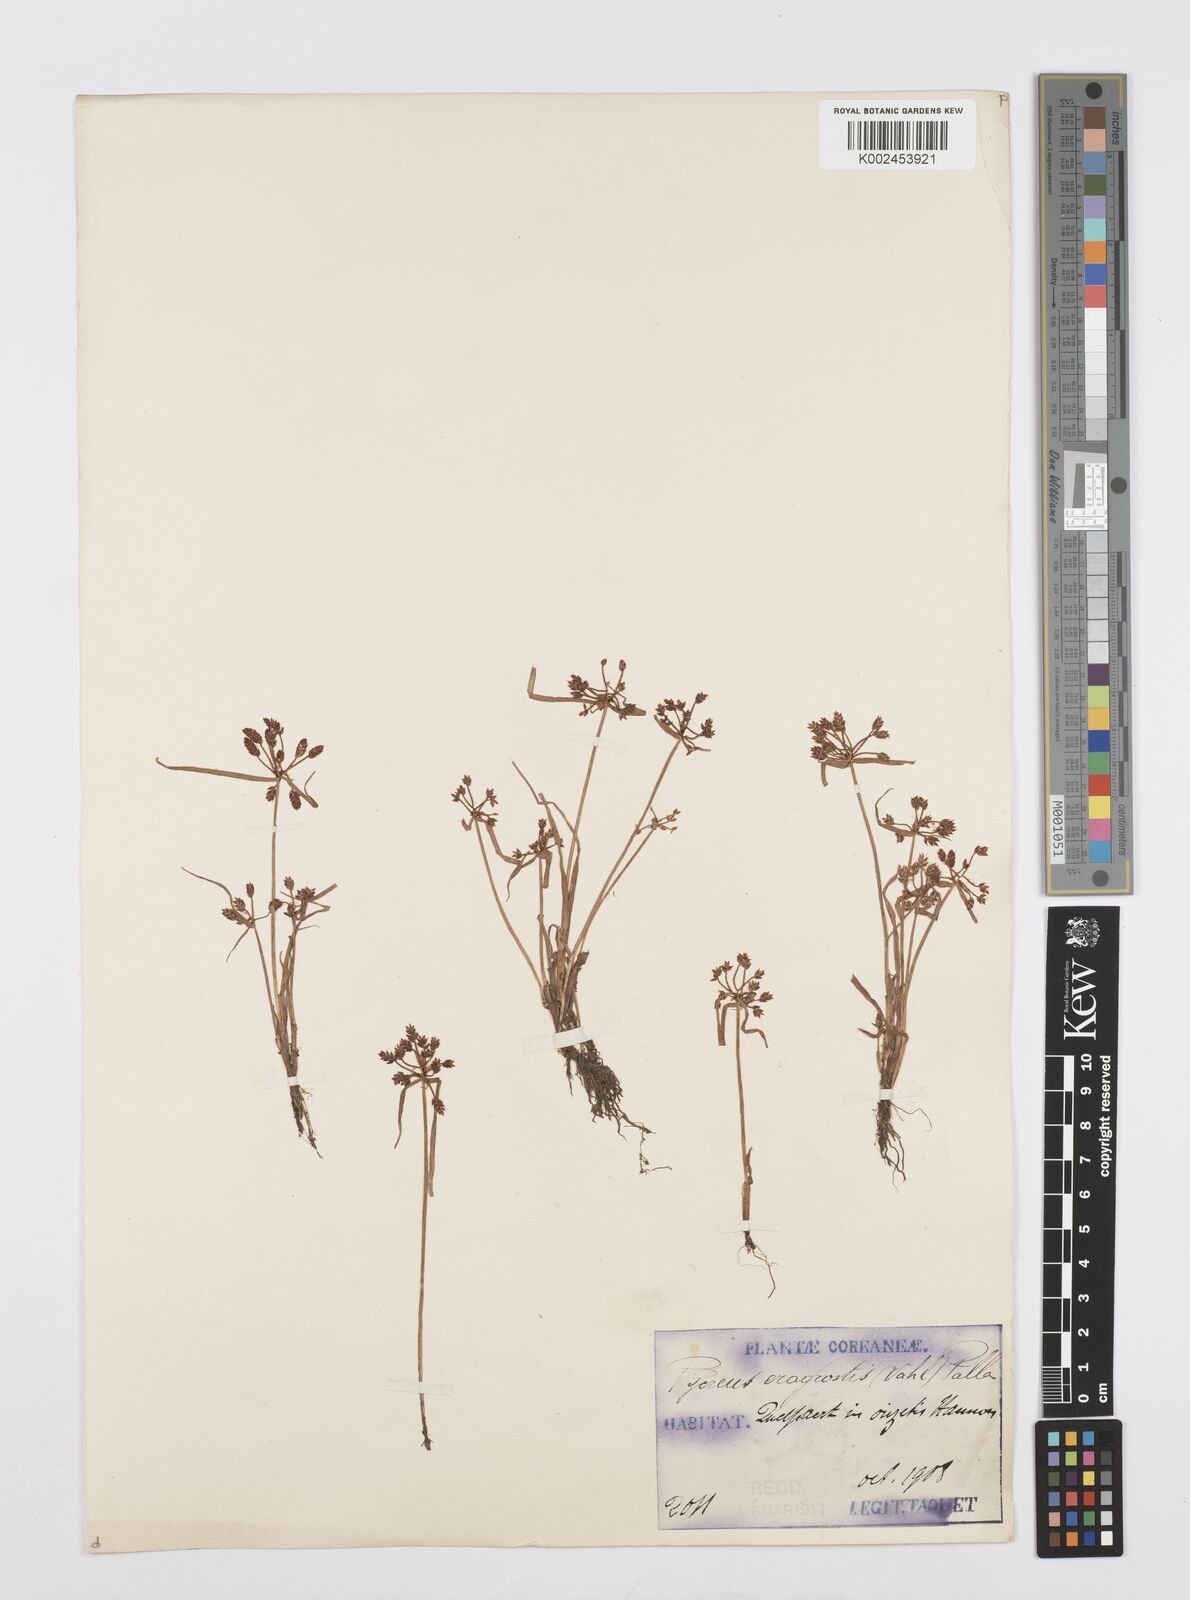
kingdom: Plantae
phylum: Tracheophyta
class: Liliopsida
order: Poales
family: Cyperaceae
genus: Cyperus
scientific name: Cyperus sanguinolentus
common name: Purpleglume flatsedge
